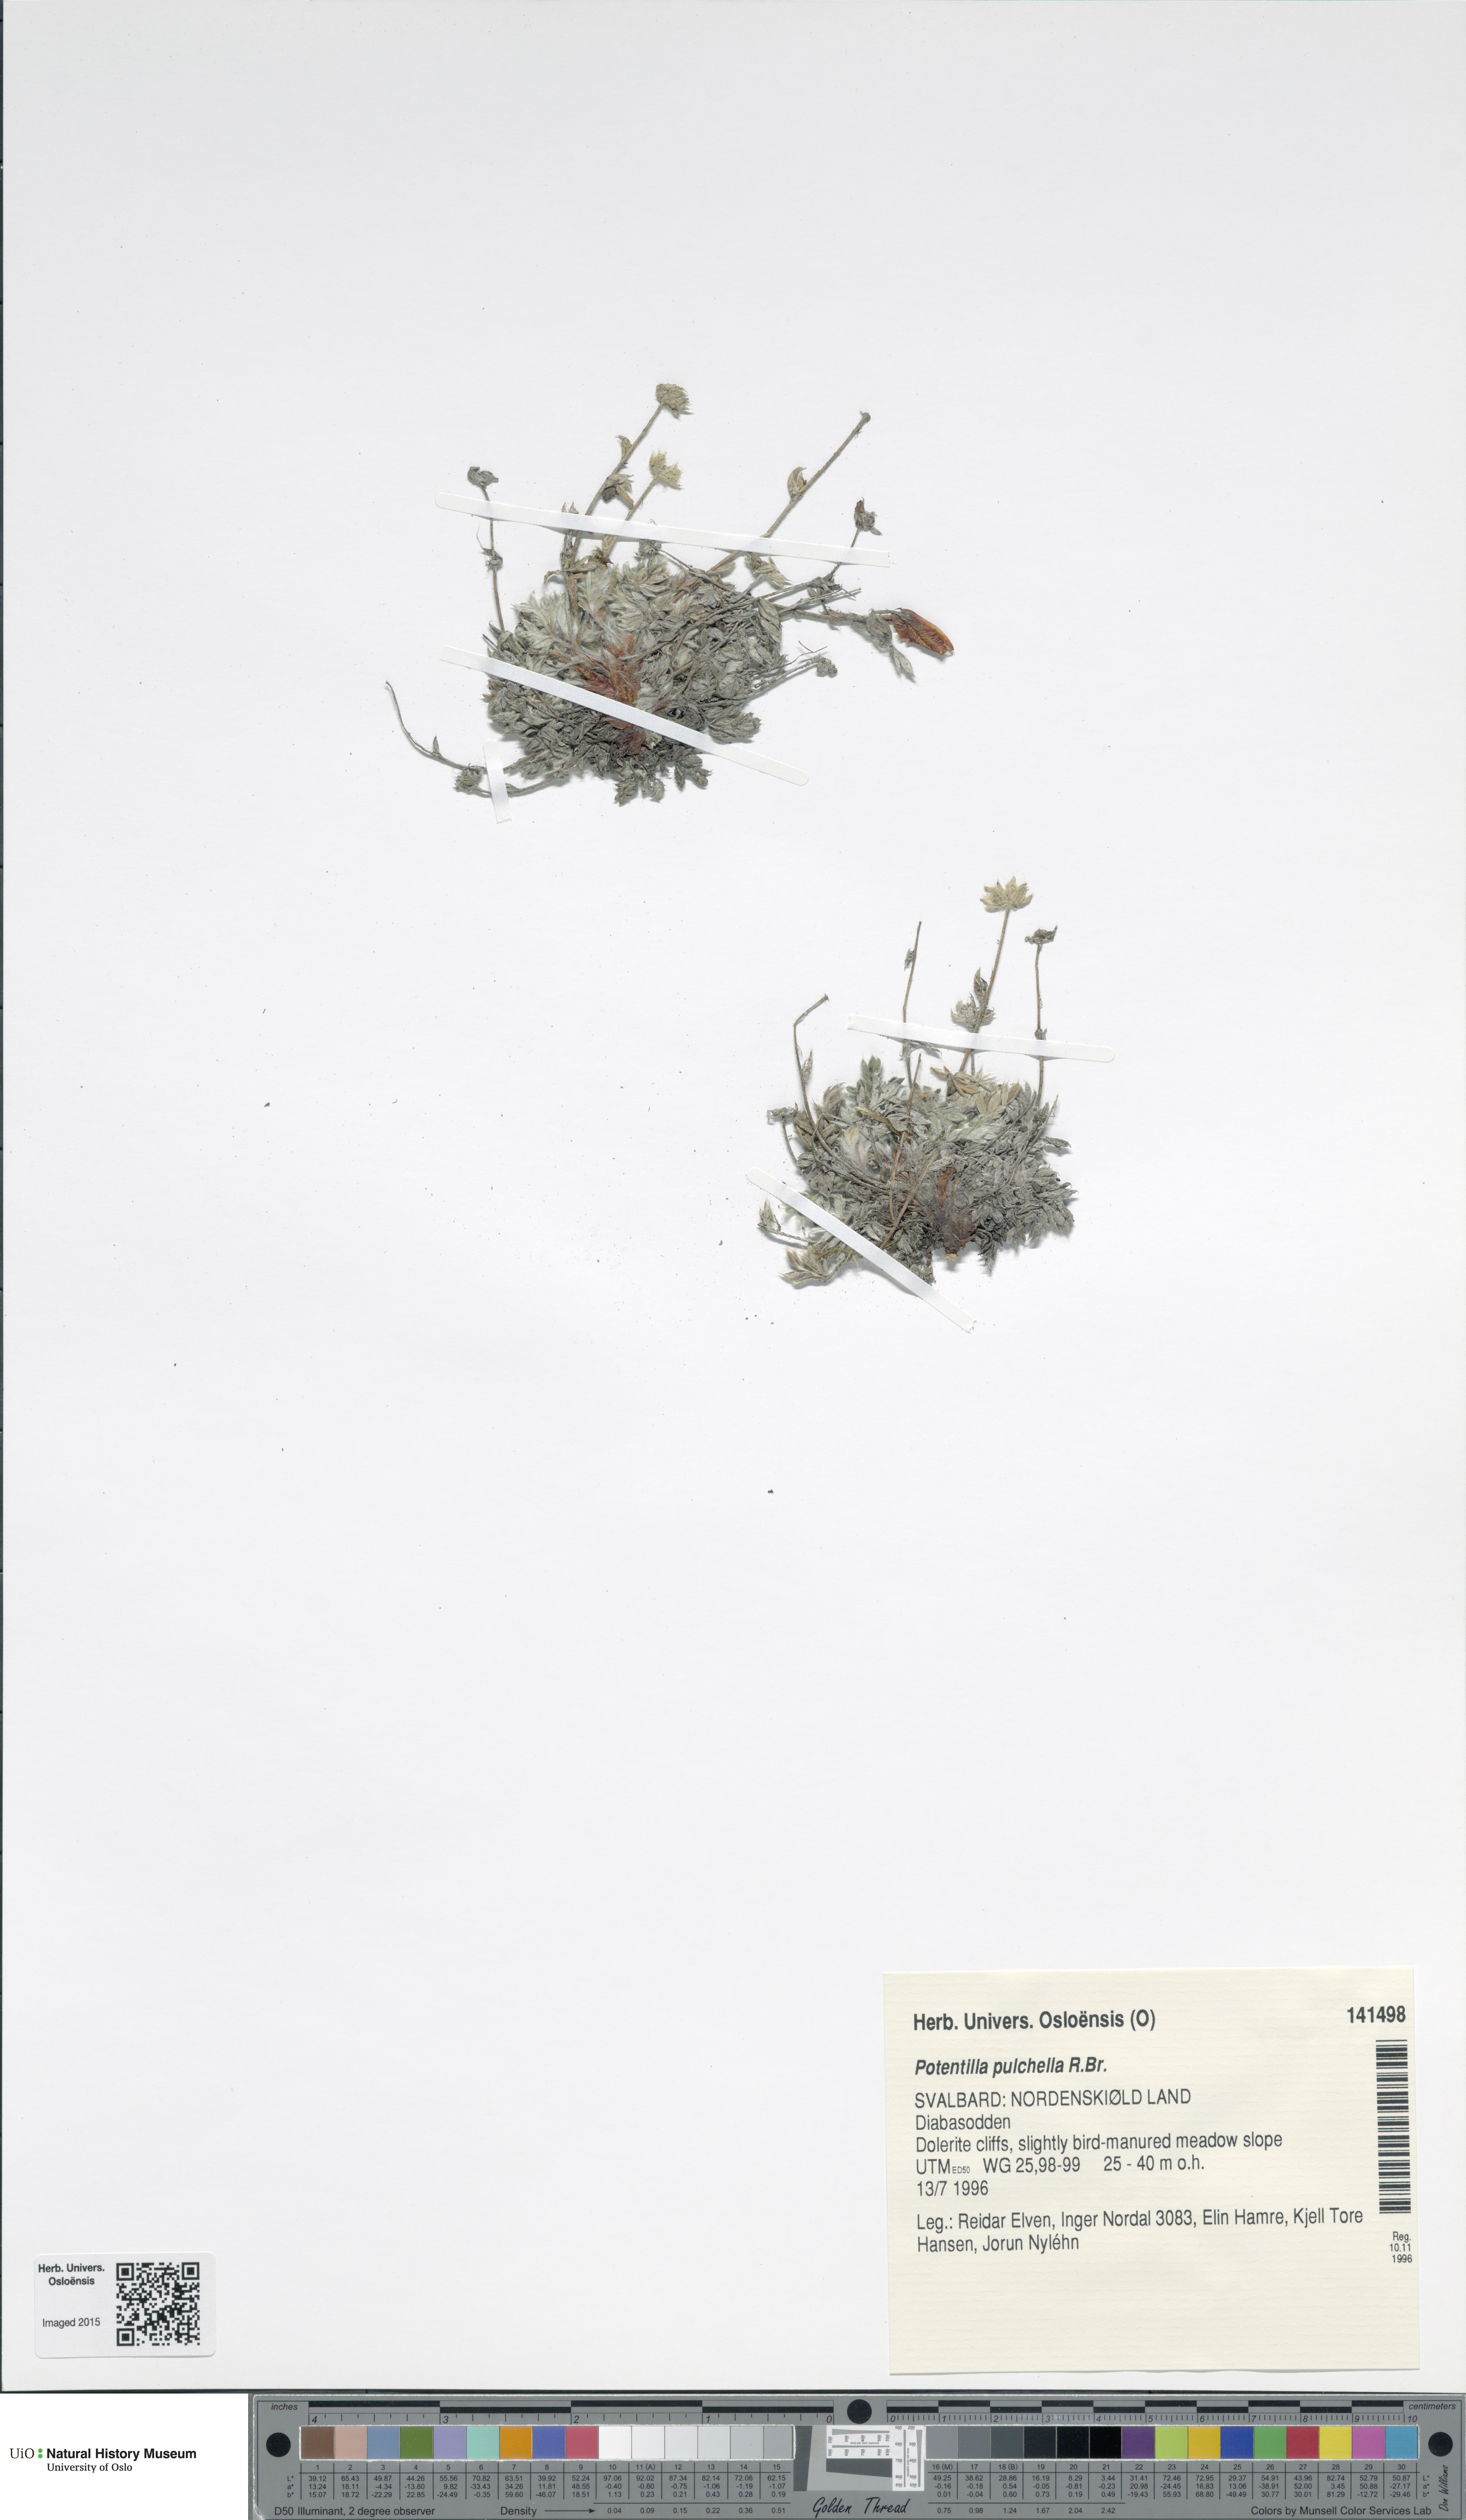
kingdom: Plantae
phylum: Tracheophyta
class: Magnoliopsida
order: Rosales
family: Rosaceae
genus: Potentilla
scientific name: Potentilla pulchella
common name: Pretty cinquefoil
